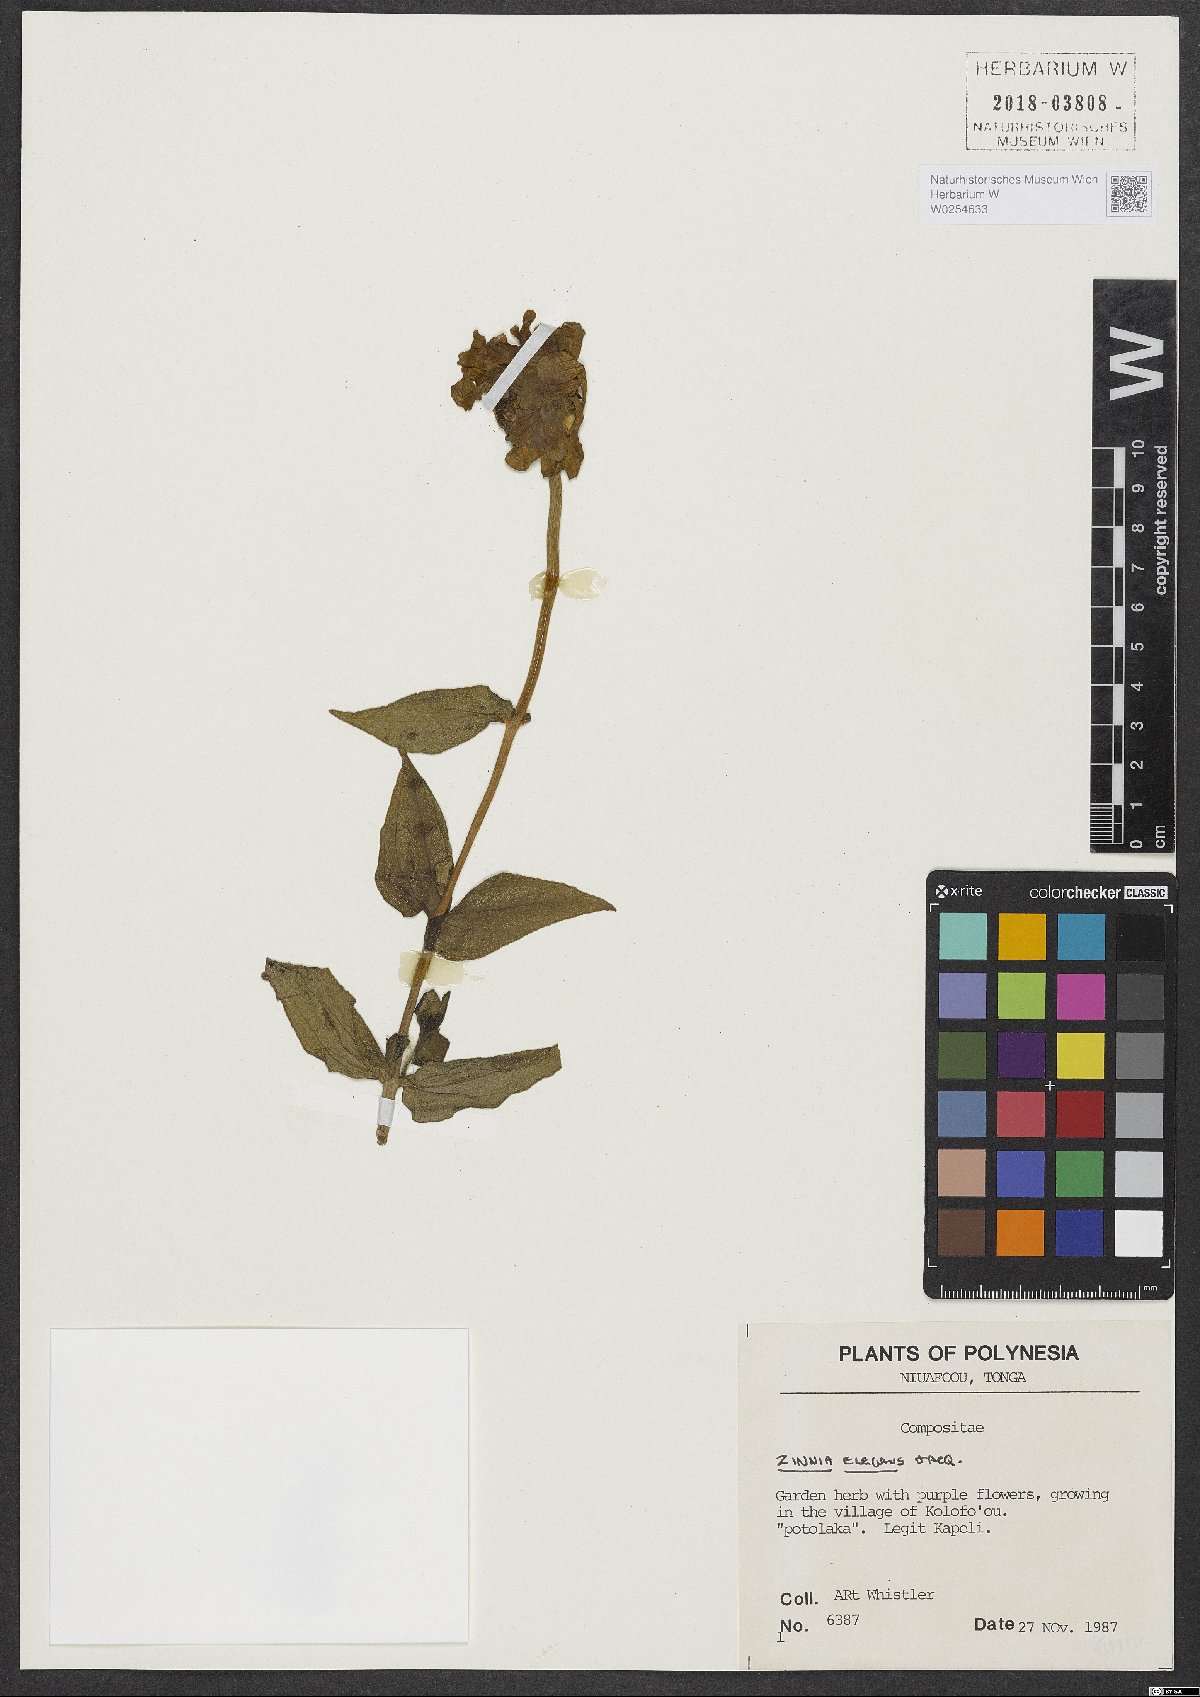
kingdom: Plantae
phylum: Tracheophyta
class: Magnoliopsida
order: Asterales
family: Asteraceae
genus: Zinnia
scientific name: Zinnia elegans
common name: Youth-and-age
